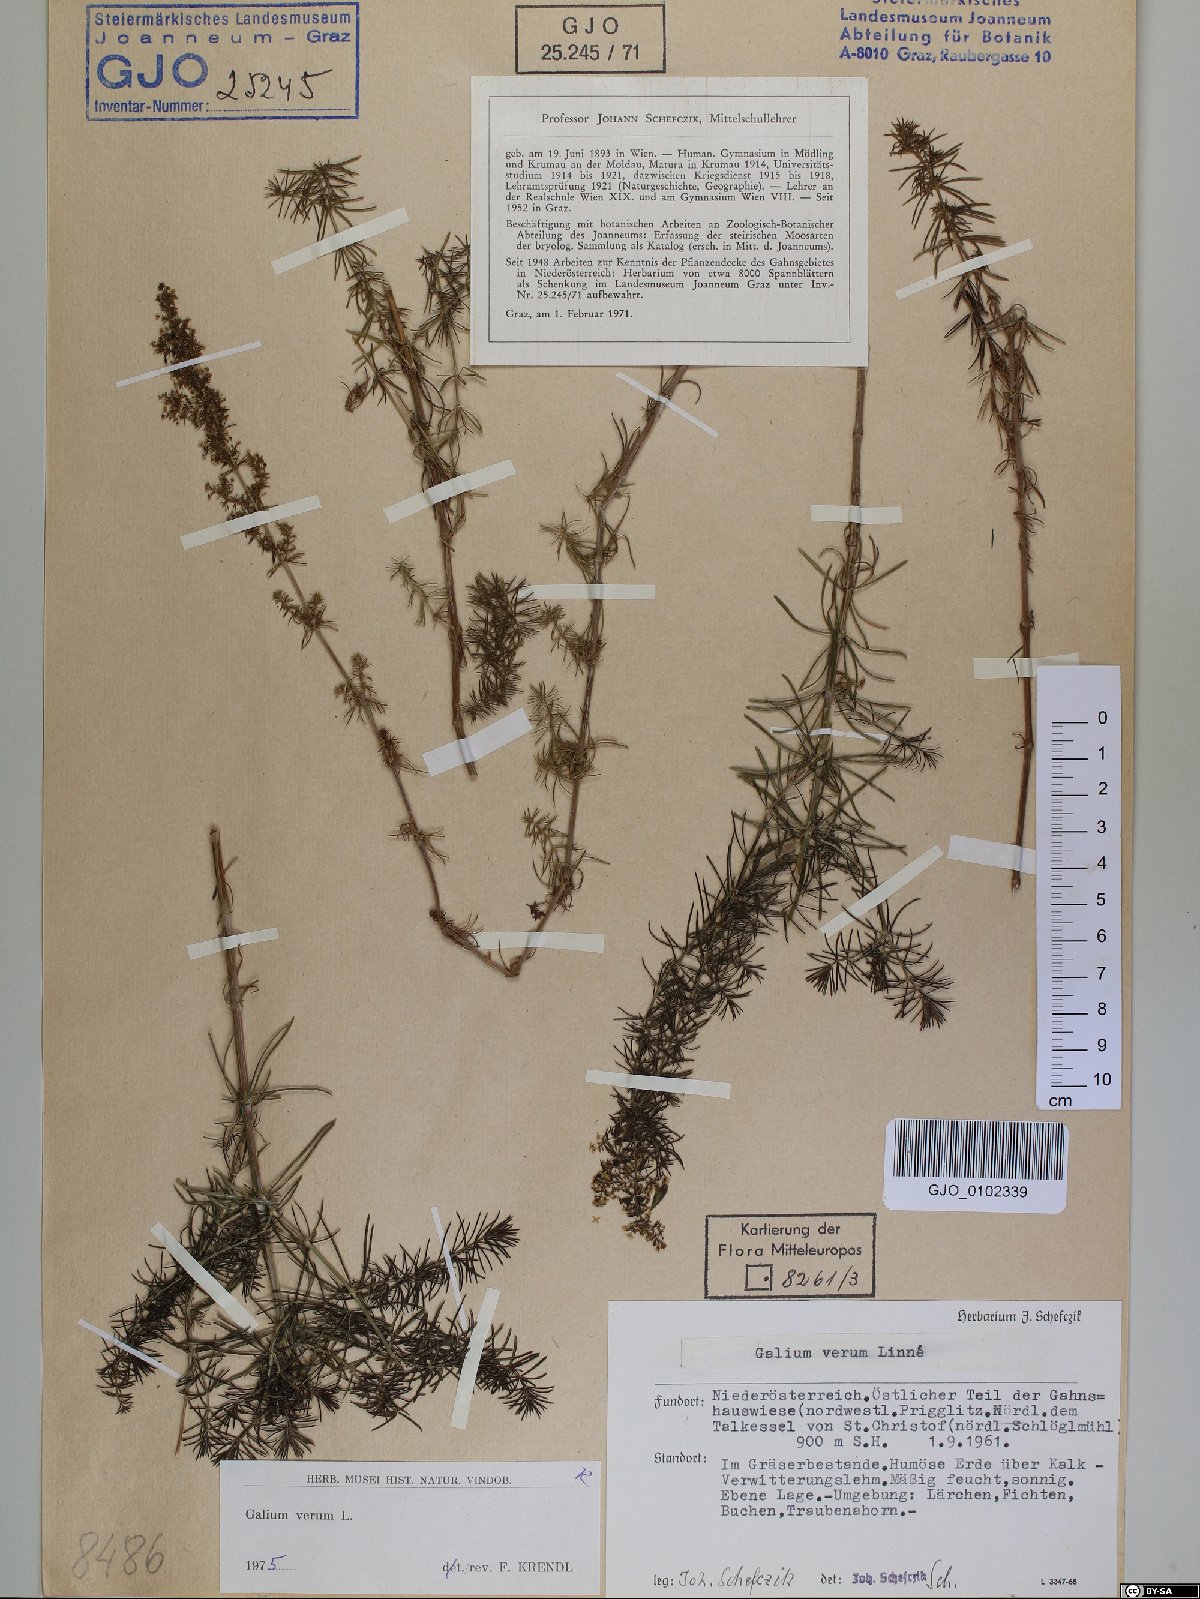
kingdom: Plantae
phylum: Tracheophyta
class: Magnoliopsida
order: Gentianales
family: Rubiaceae
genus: Galium
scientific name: Galium verum
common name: Lady's bedstraw
